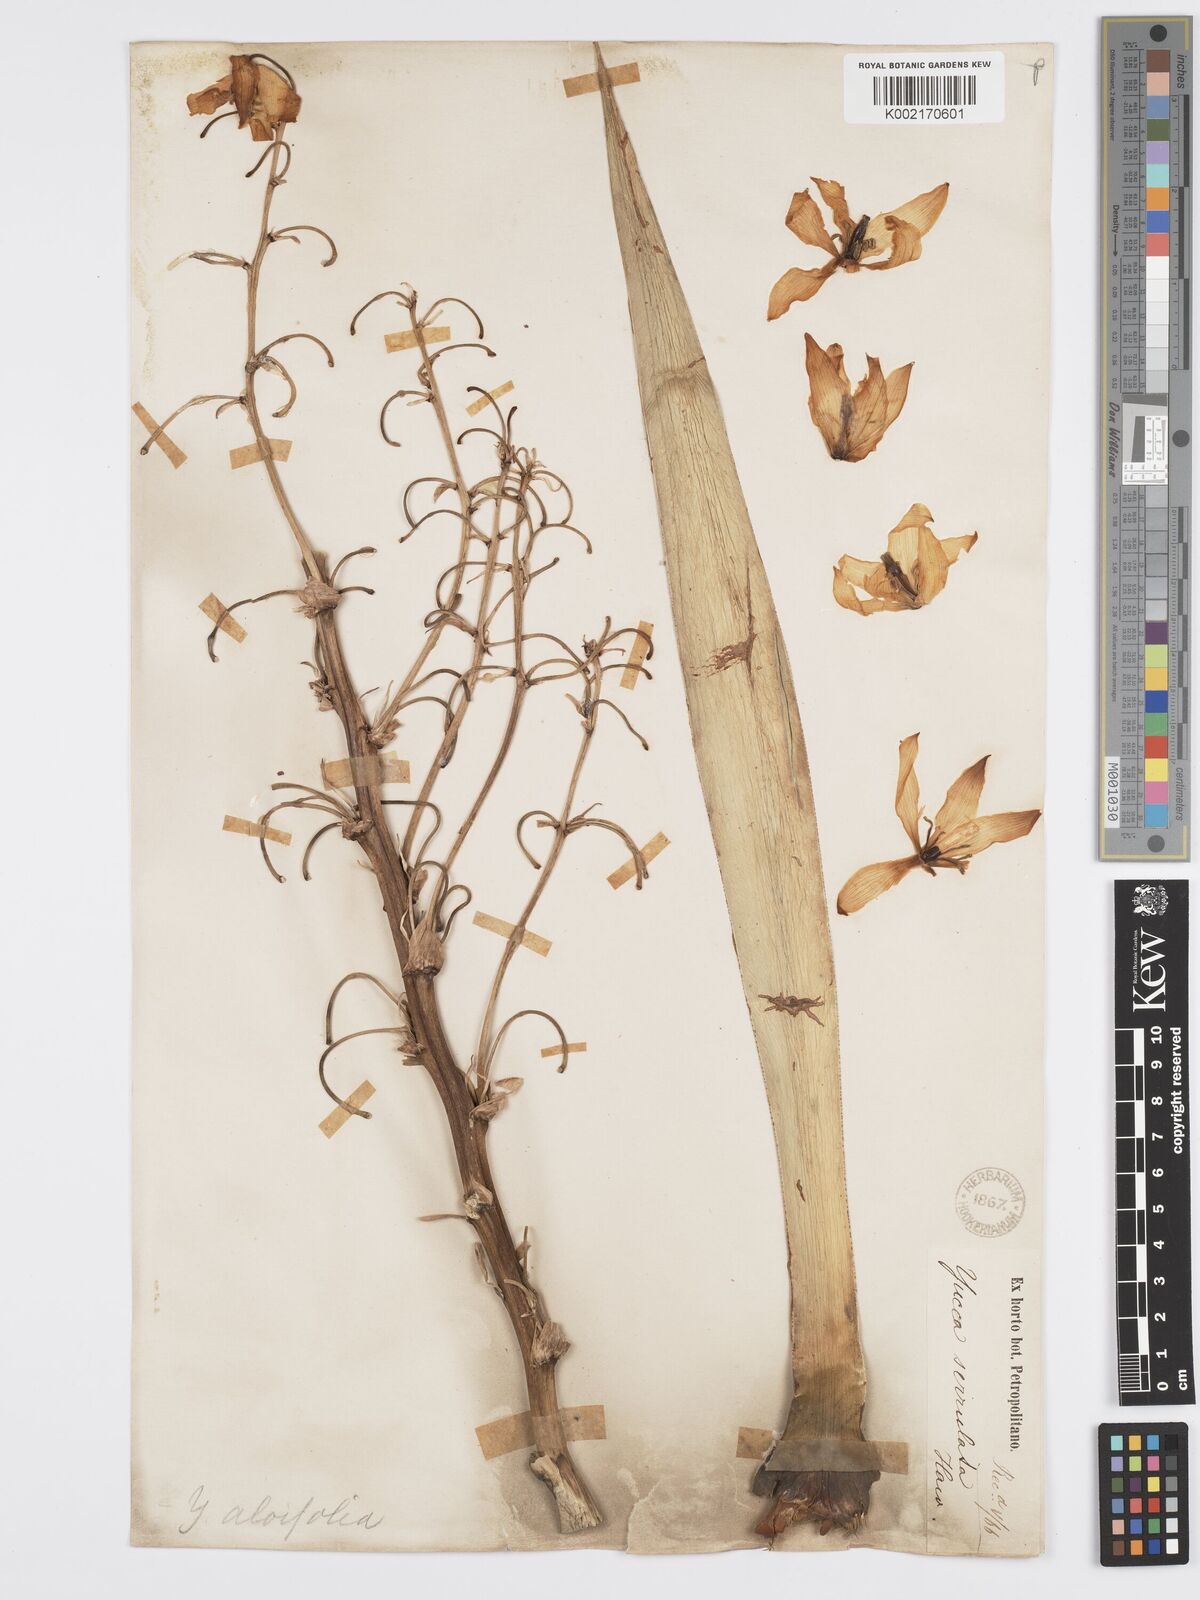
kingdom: Plantae
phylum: Tracheophyta
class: Liliopsida
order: Asparagales
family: Asparagaceae
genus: Yucca
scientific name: Yucca aloifolia
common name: Aloe yucca
